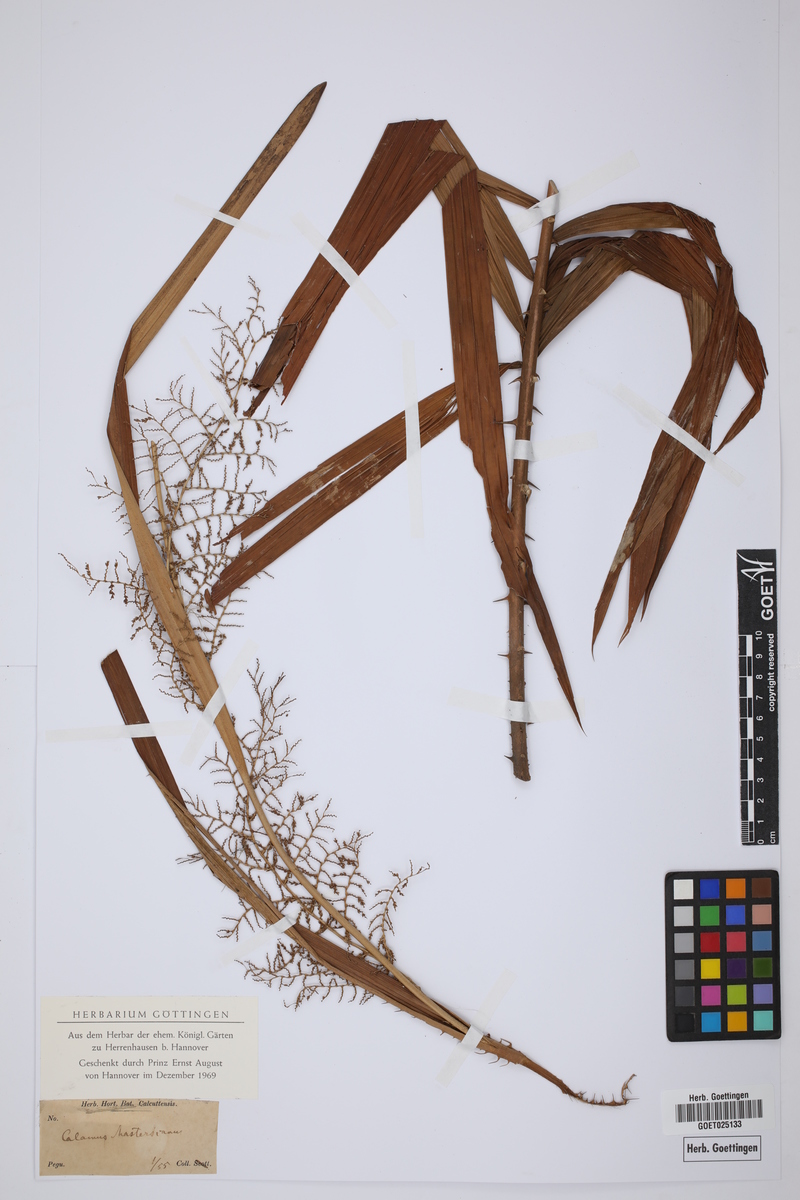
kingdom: Plantae
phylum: Tracheophyta
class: Liliopsida
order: Arecales
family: Arecaceae
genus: Calamus
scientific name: Calamus guruba
